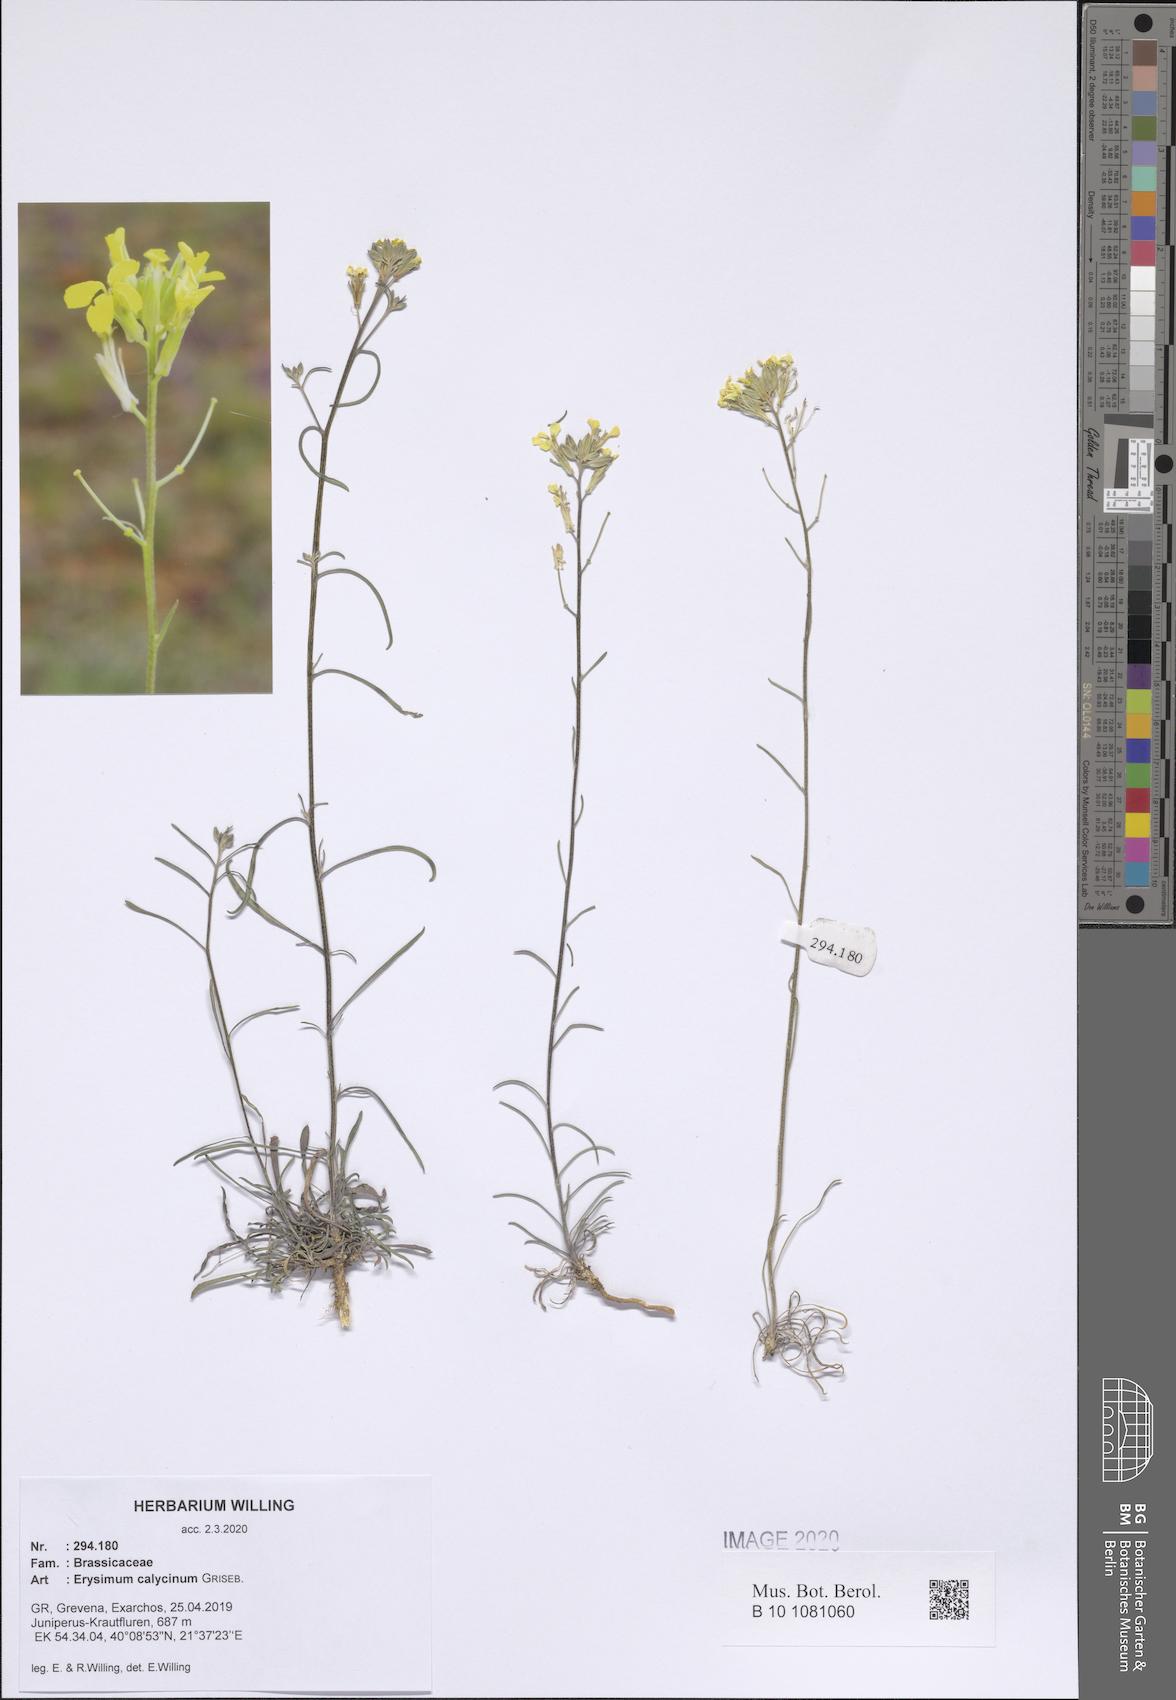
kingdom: Plantae
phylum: Tracheophyta
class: Magnoliopsida
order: Brassicales
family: Brassicaceae
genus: Erysimum
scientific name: Erysimum calycinum
